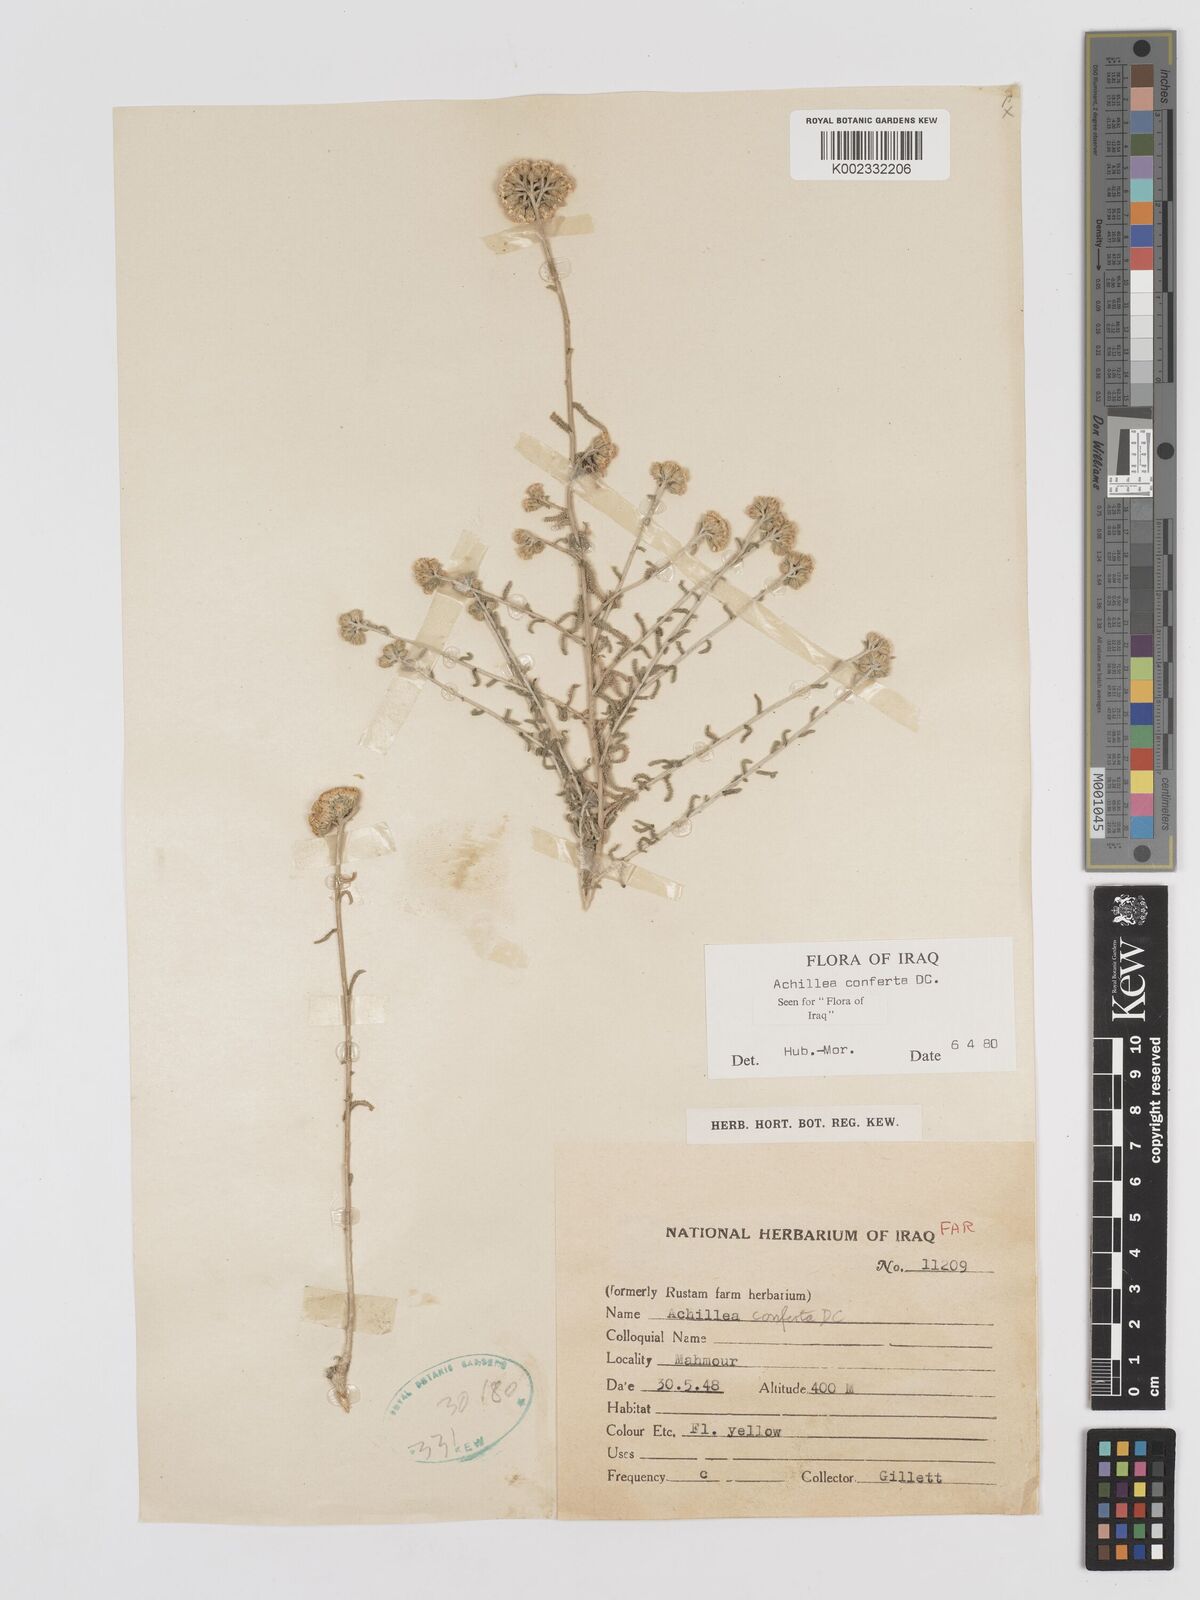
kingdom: Plantae
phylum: Tracheophyta
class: Magnoliopsida
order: Asterales
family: Asteraceae
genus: Achillea
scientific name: Achillea conferta
